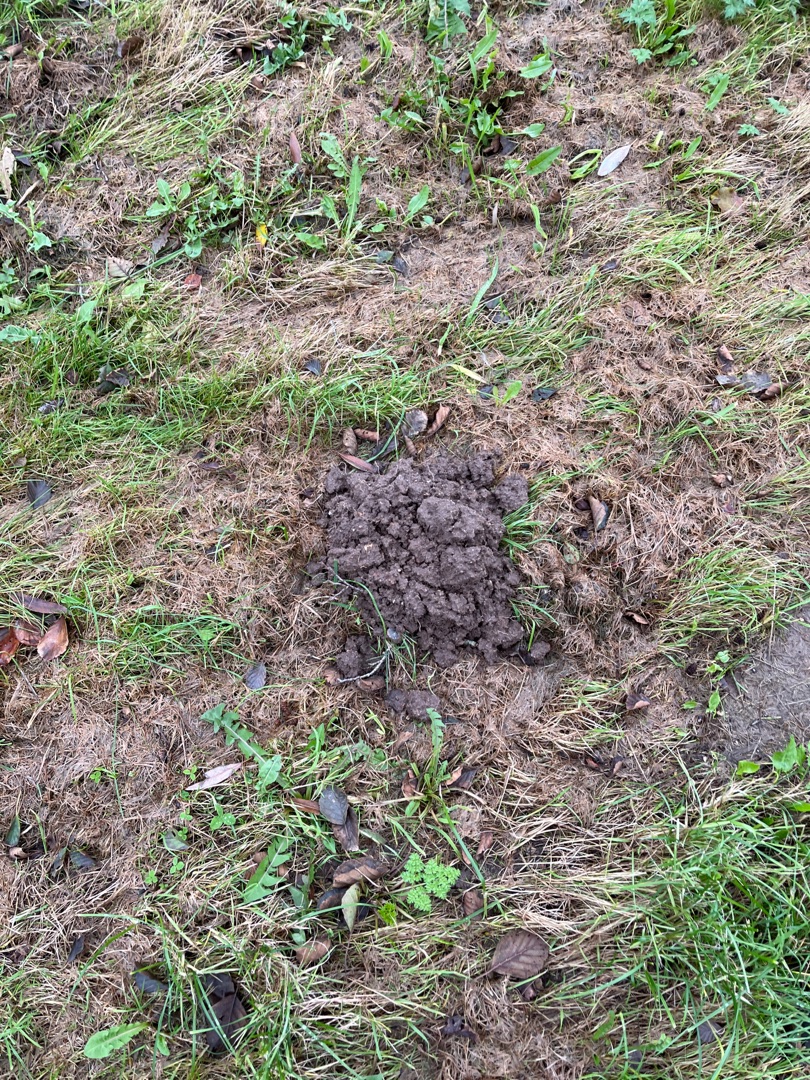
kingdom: Animalia
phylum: Chordata
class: Mammalia
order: Soricomorpha
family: Talpidae
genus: Talpa
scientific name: Talpa europaea
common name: Muldvarp
